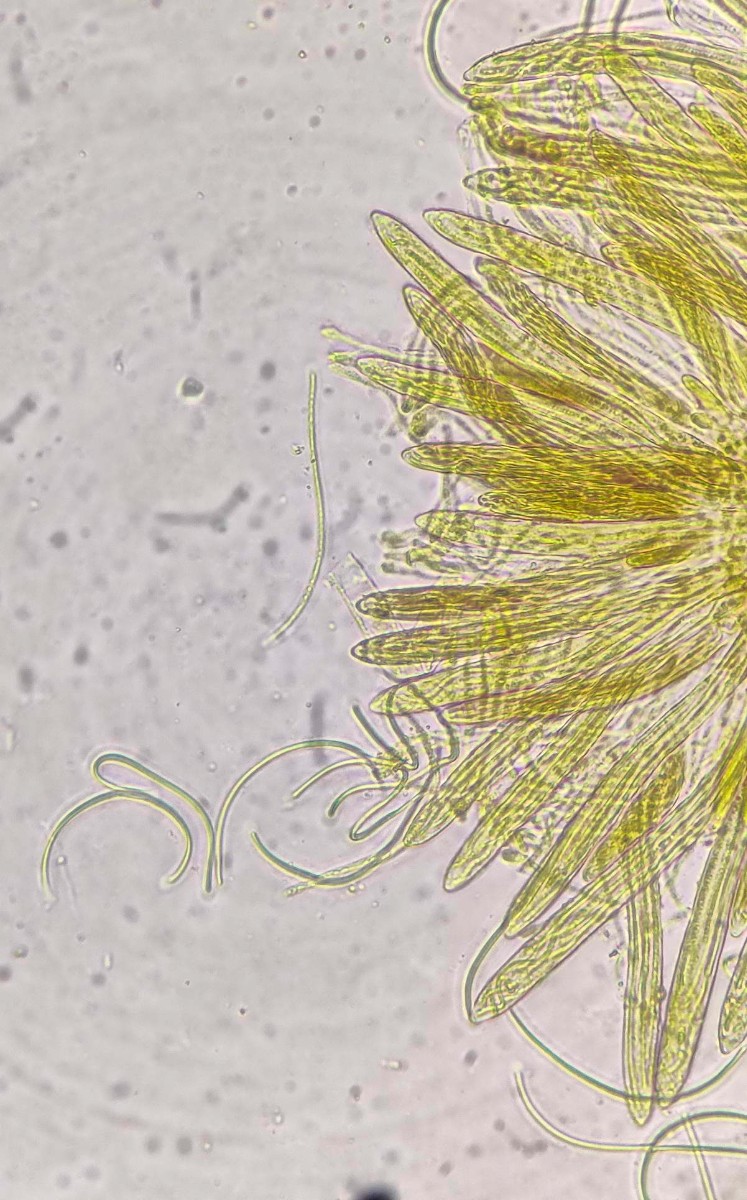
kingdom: Fungi
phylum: Ascomycota
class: Leotiomycetes
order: Rhytismatales
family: Rhytismataceae
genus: Lophodermium
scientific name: Lophodermium seditiosum
